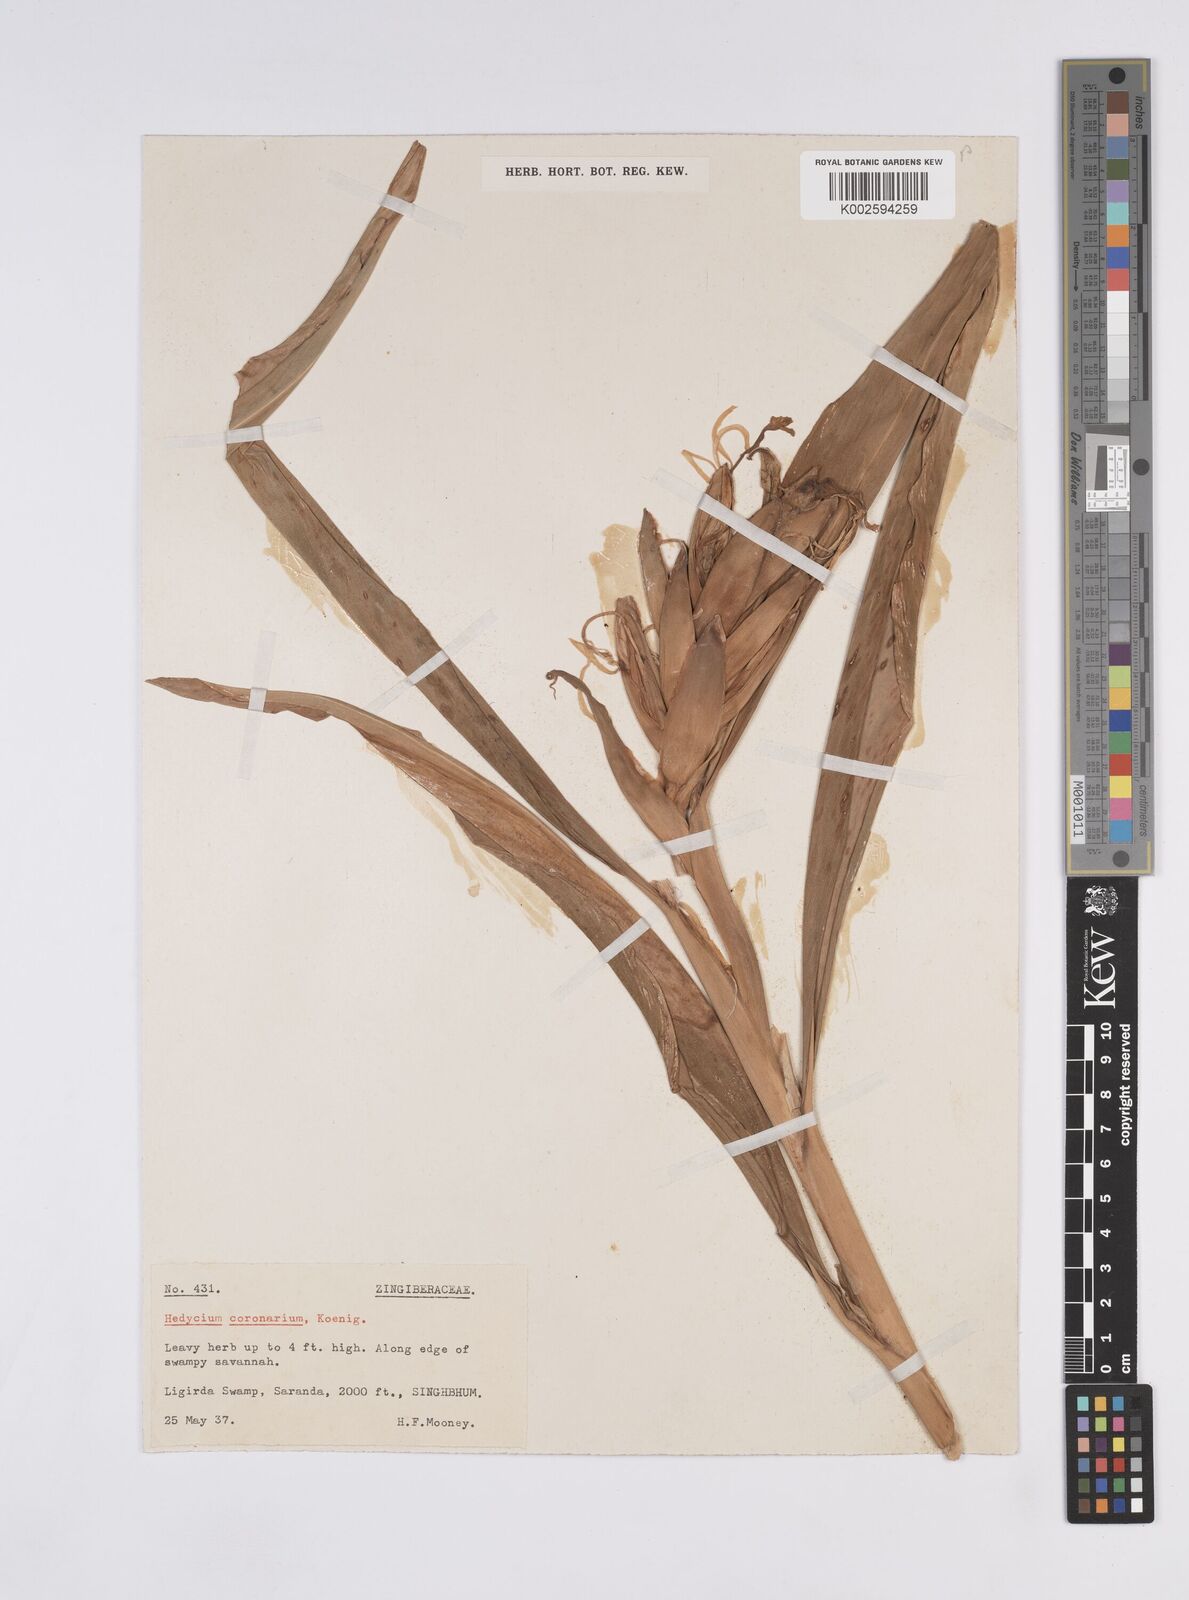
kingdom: Plantae
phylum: Tracheophyta
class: Liliopsida
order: Zingiberales
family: Zingiberaceae
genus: Hedychium
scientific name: Hedychium coronarium
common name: White garland-lily
